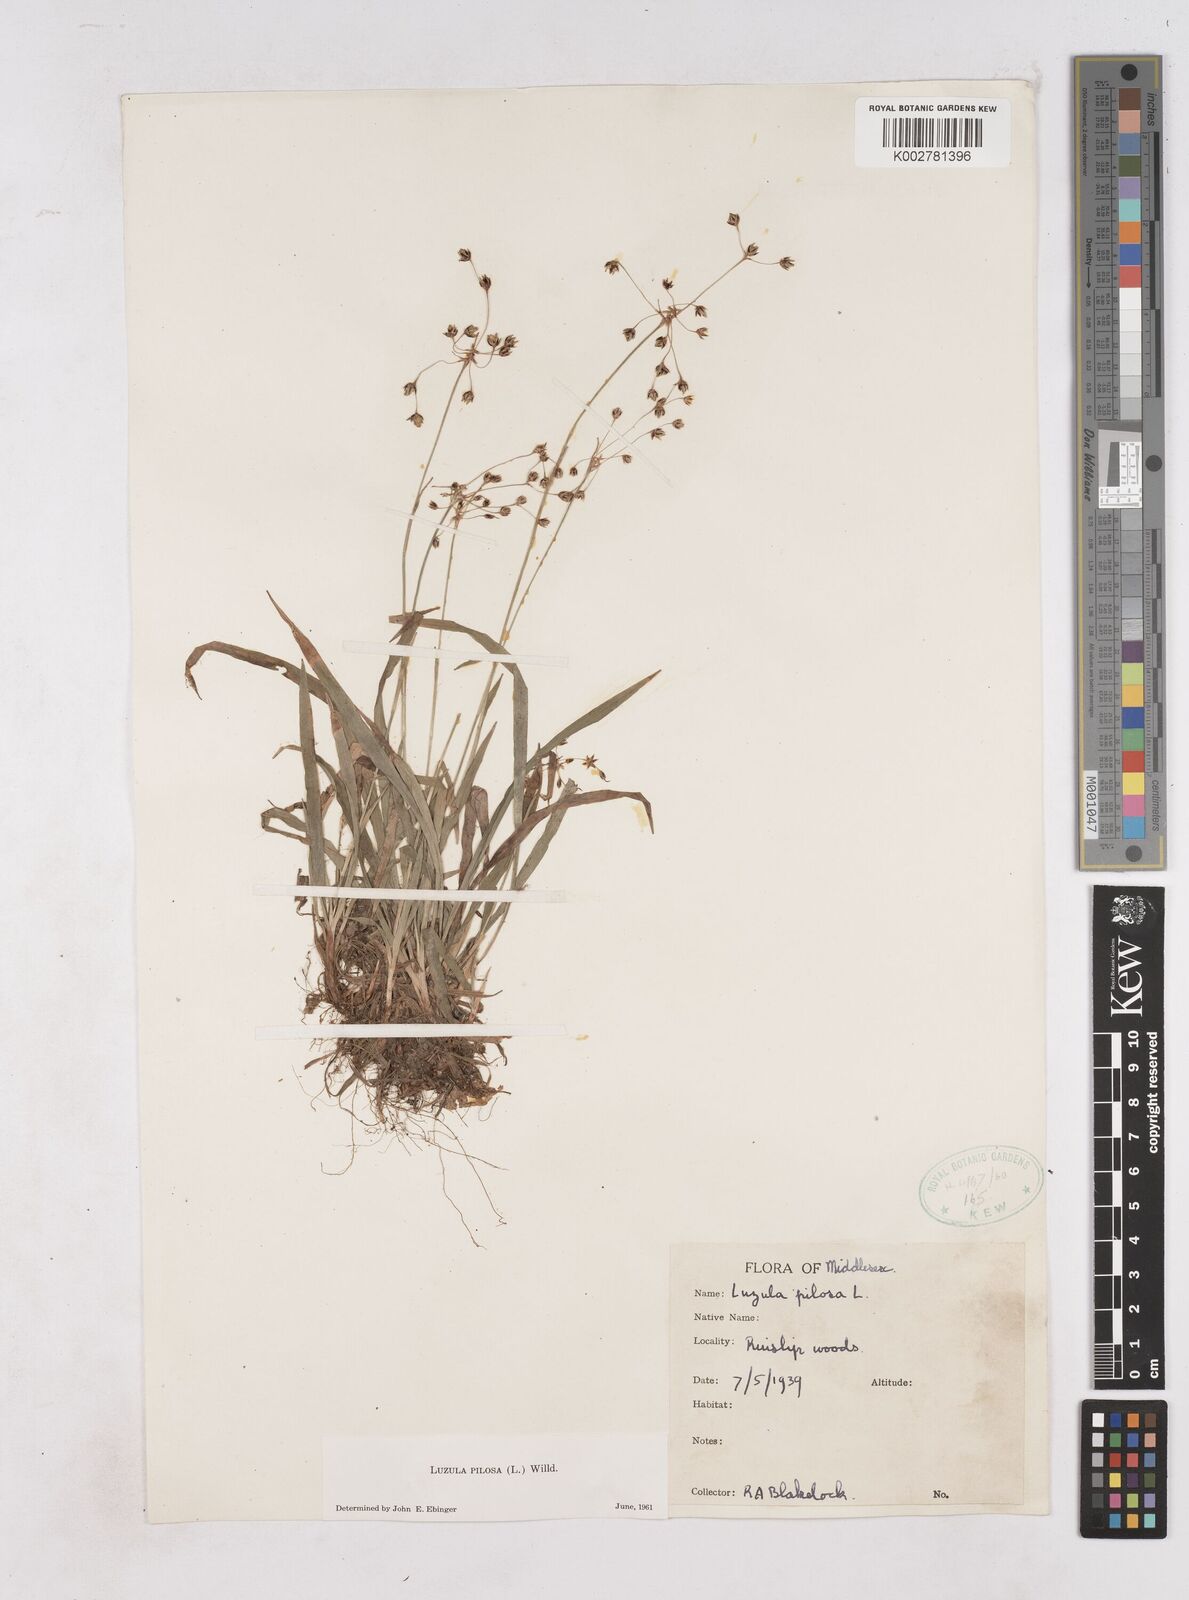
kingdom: Plantae
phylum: Tracheophyta
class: Liliopsida
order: Poales
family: Juncaceae
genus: Luzula
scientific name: Luzula pilosa
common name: Hairy wood-rush
